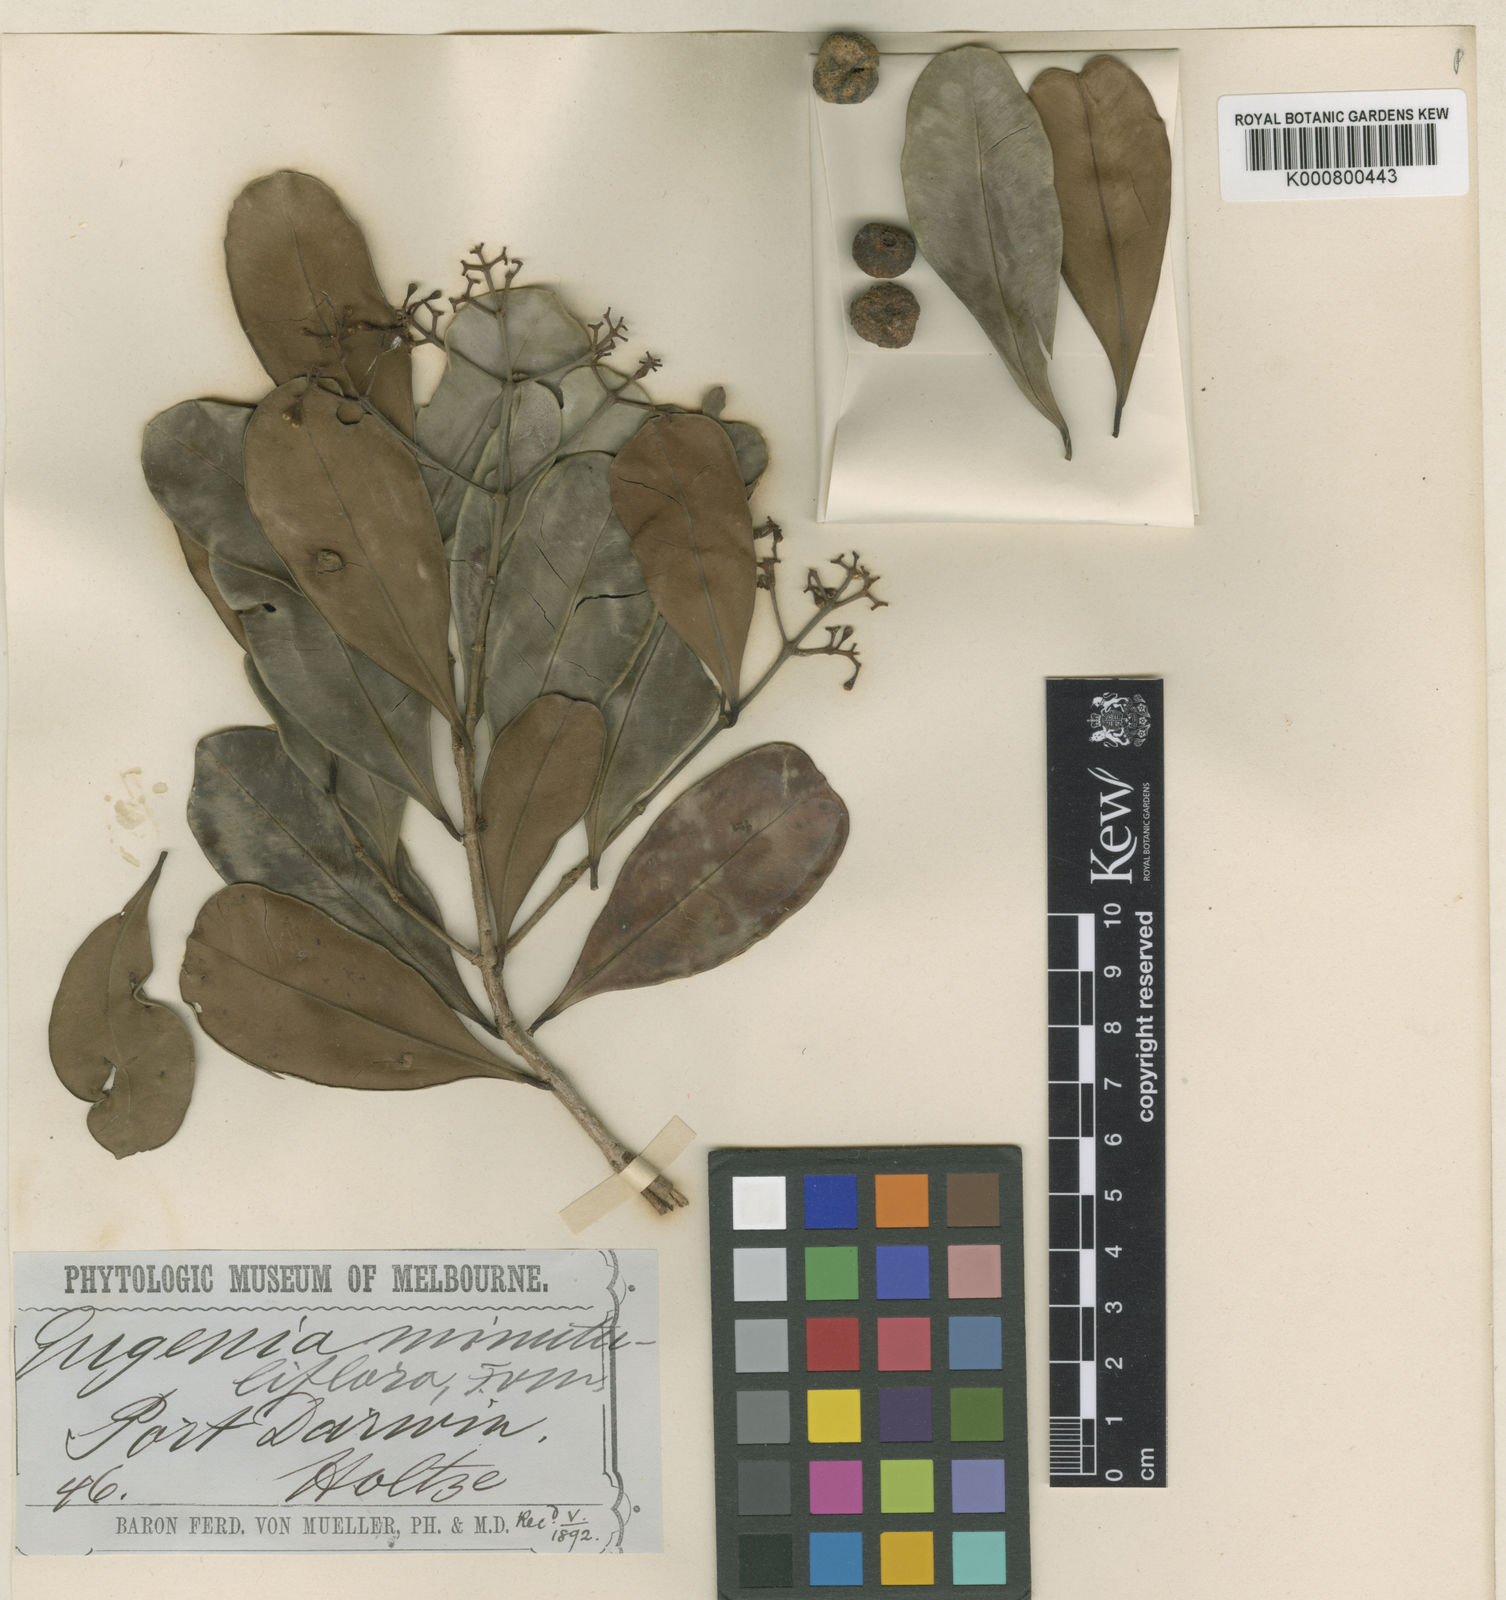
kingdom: Plantae
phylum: Tracheophyta
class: Magnoliopsida
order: Myrtales
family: Myrtaceae
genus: Syzygium
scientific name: Syzygium minutuliflorum
